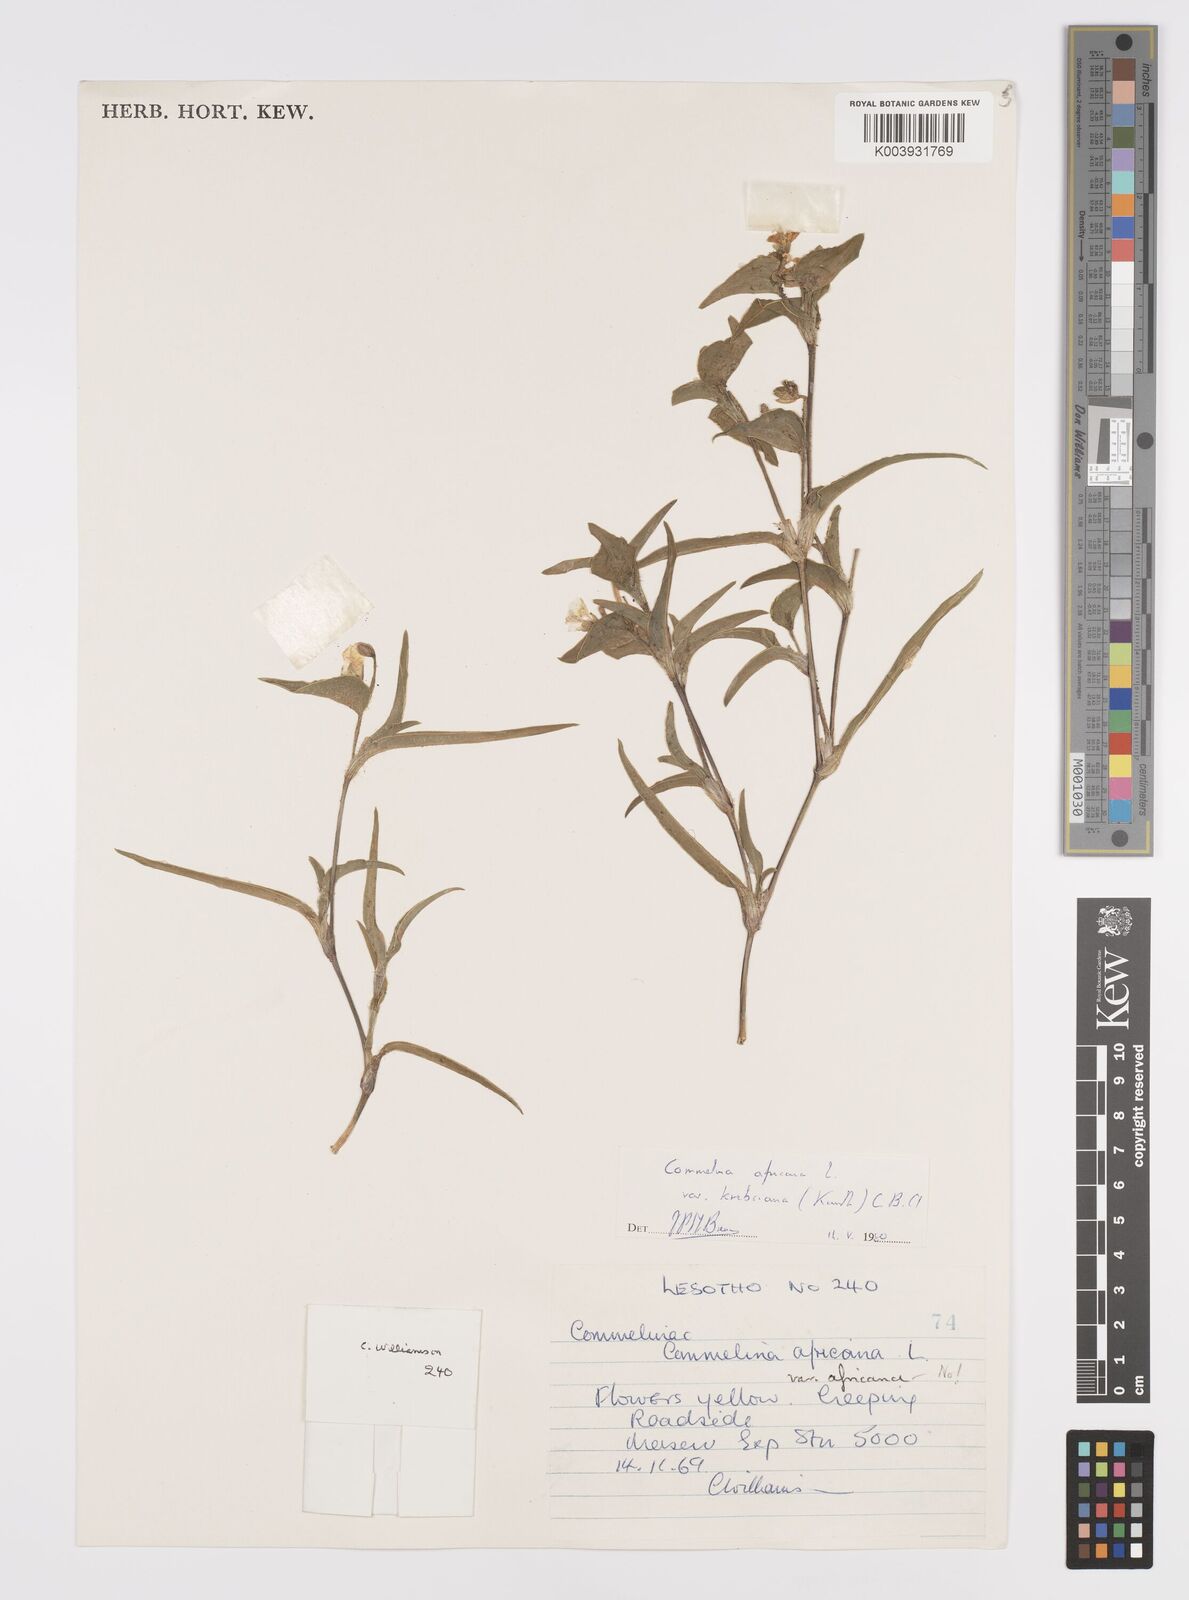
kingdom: Plantae
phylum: Tracheophyta
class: Liliopsida
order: Commelinales
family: Commelinaceae
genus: Commelina
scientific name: Commelina africana
